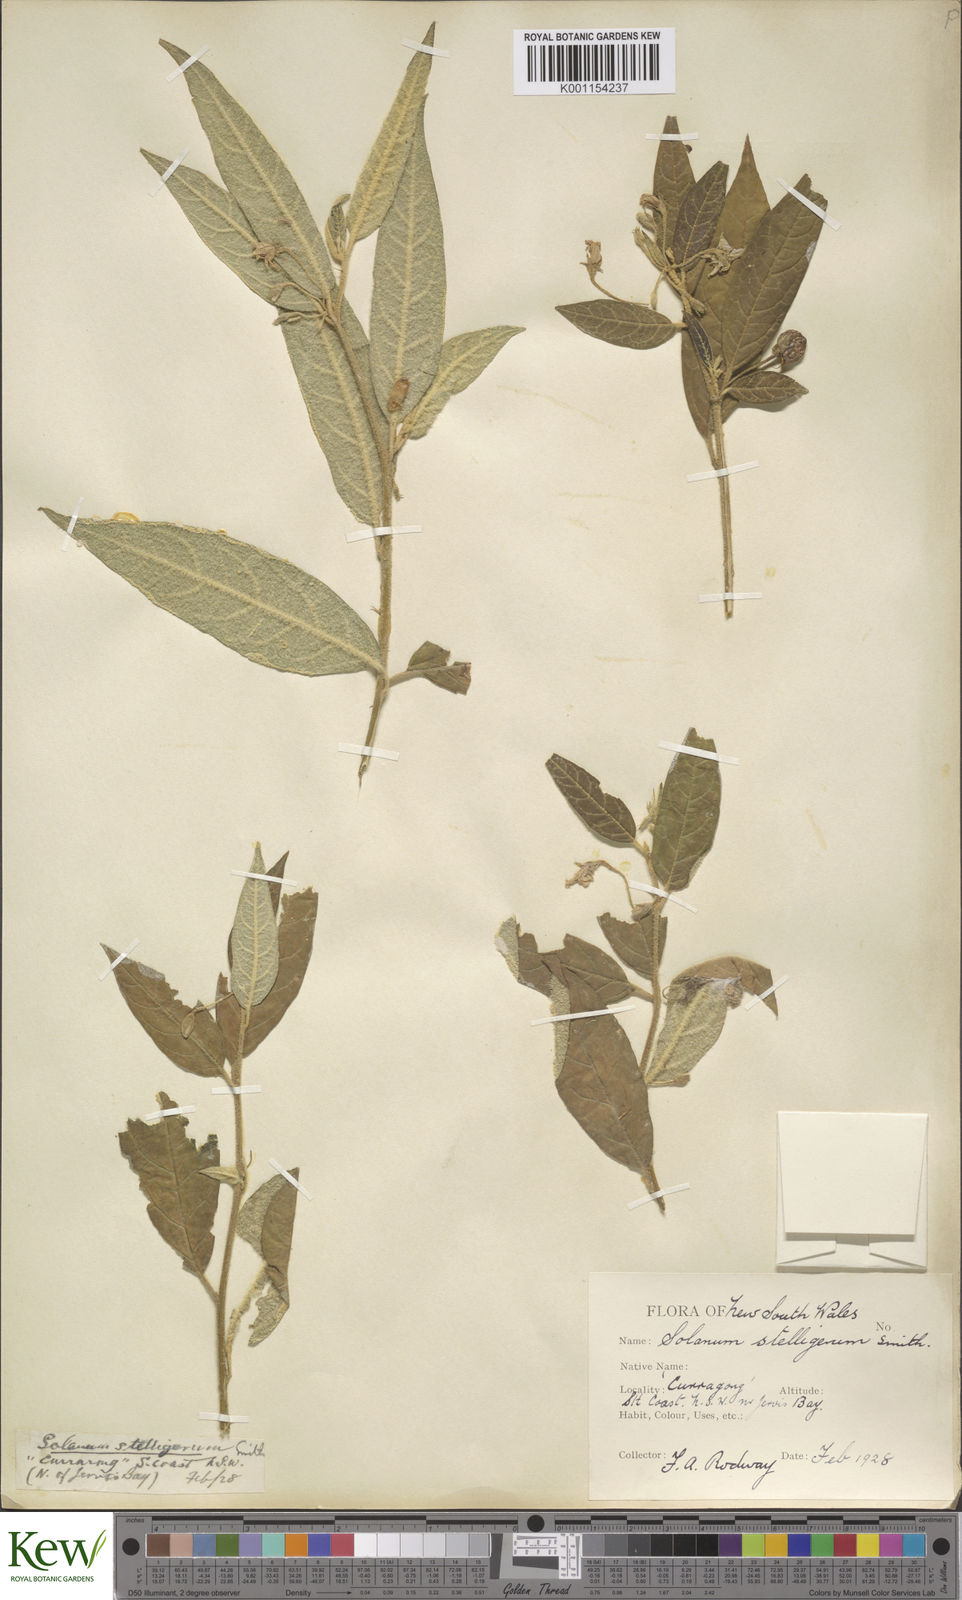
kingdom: Plantae
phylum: Tracheophyta
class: Magnoliopsida
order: Solanales
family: Solanaceae
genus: Solanum
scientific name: Solanum stelligerum
